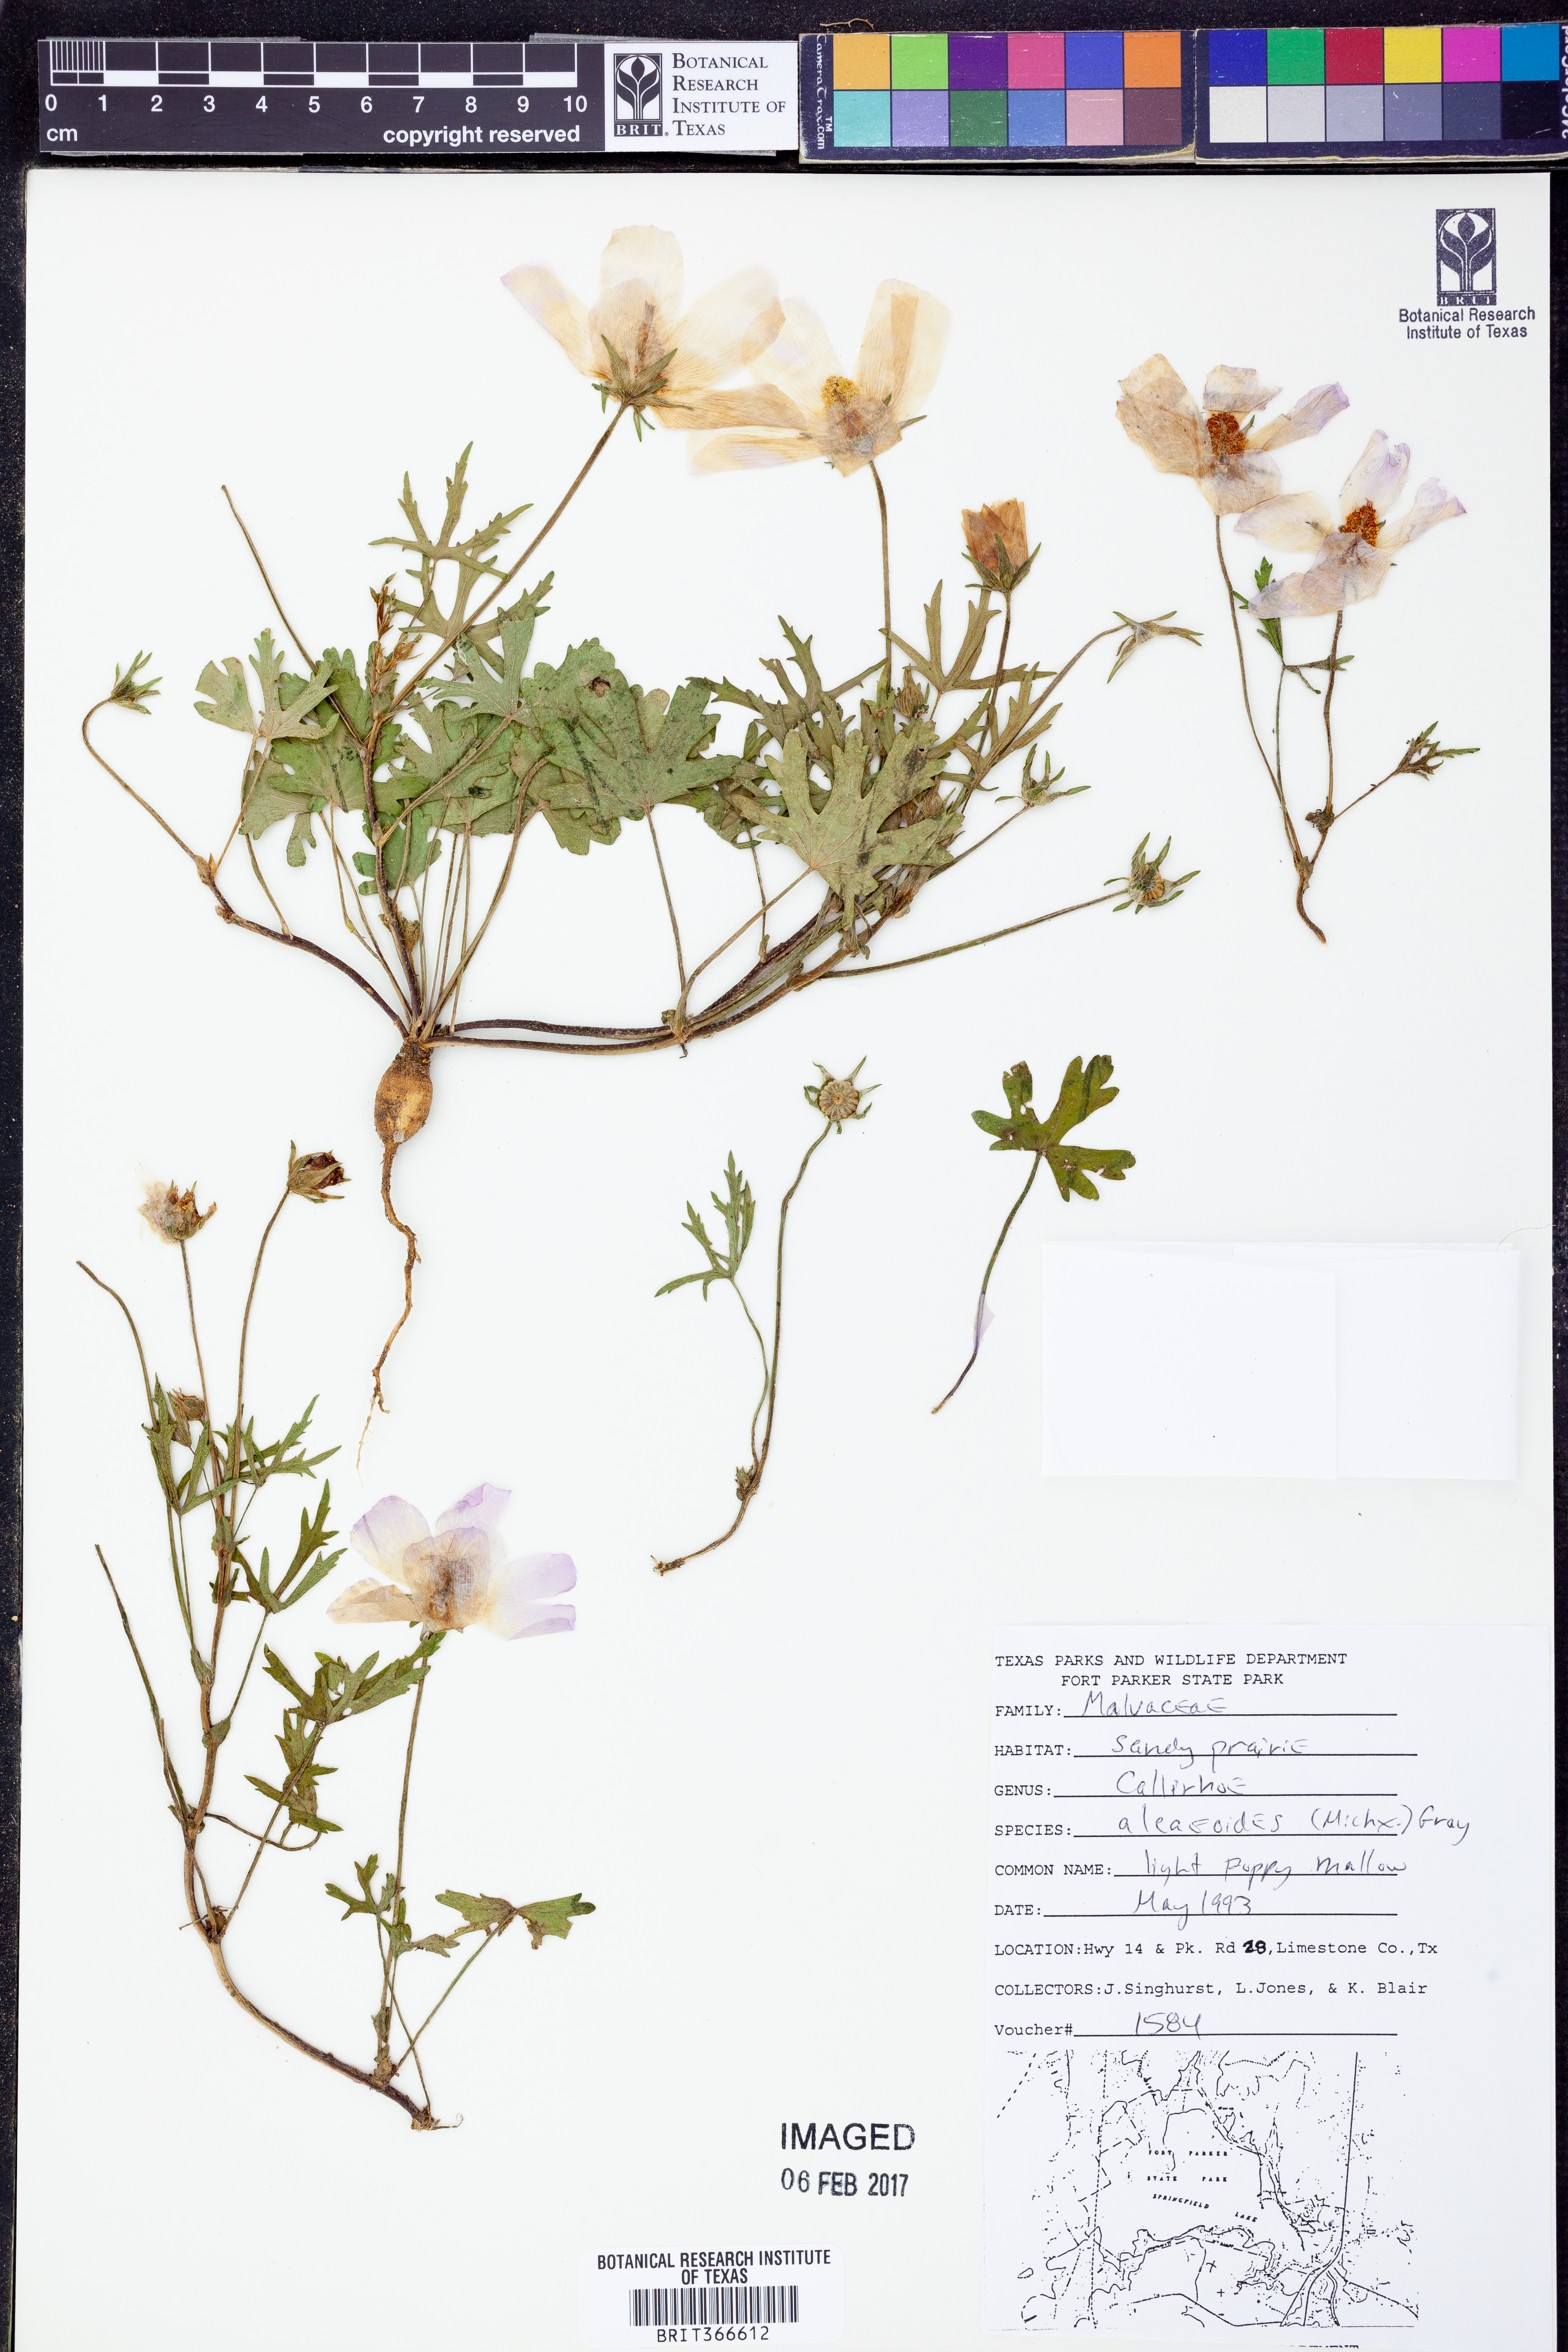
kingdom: Plantae
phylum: Tracheophyta
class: Magnoliopsida
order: Malvales
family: Malvaceae
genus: Callirhoe
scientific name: Callirhoe alcaeoides
